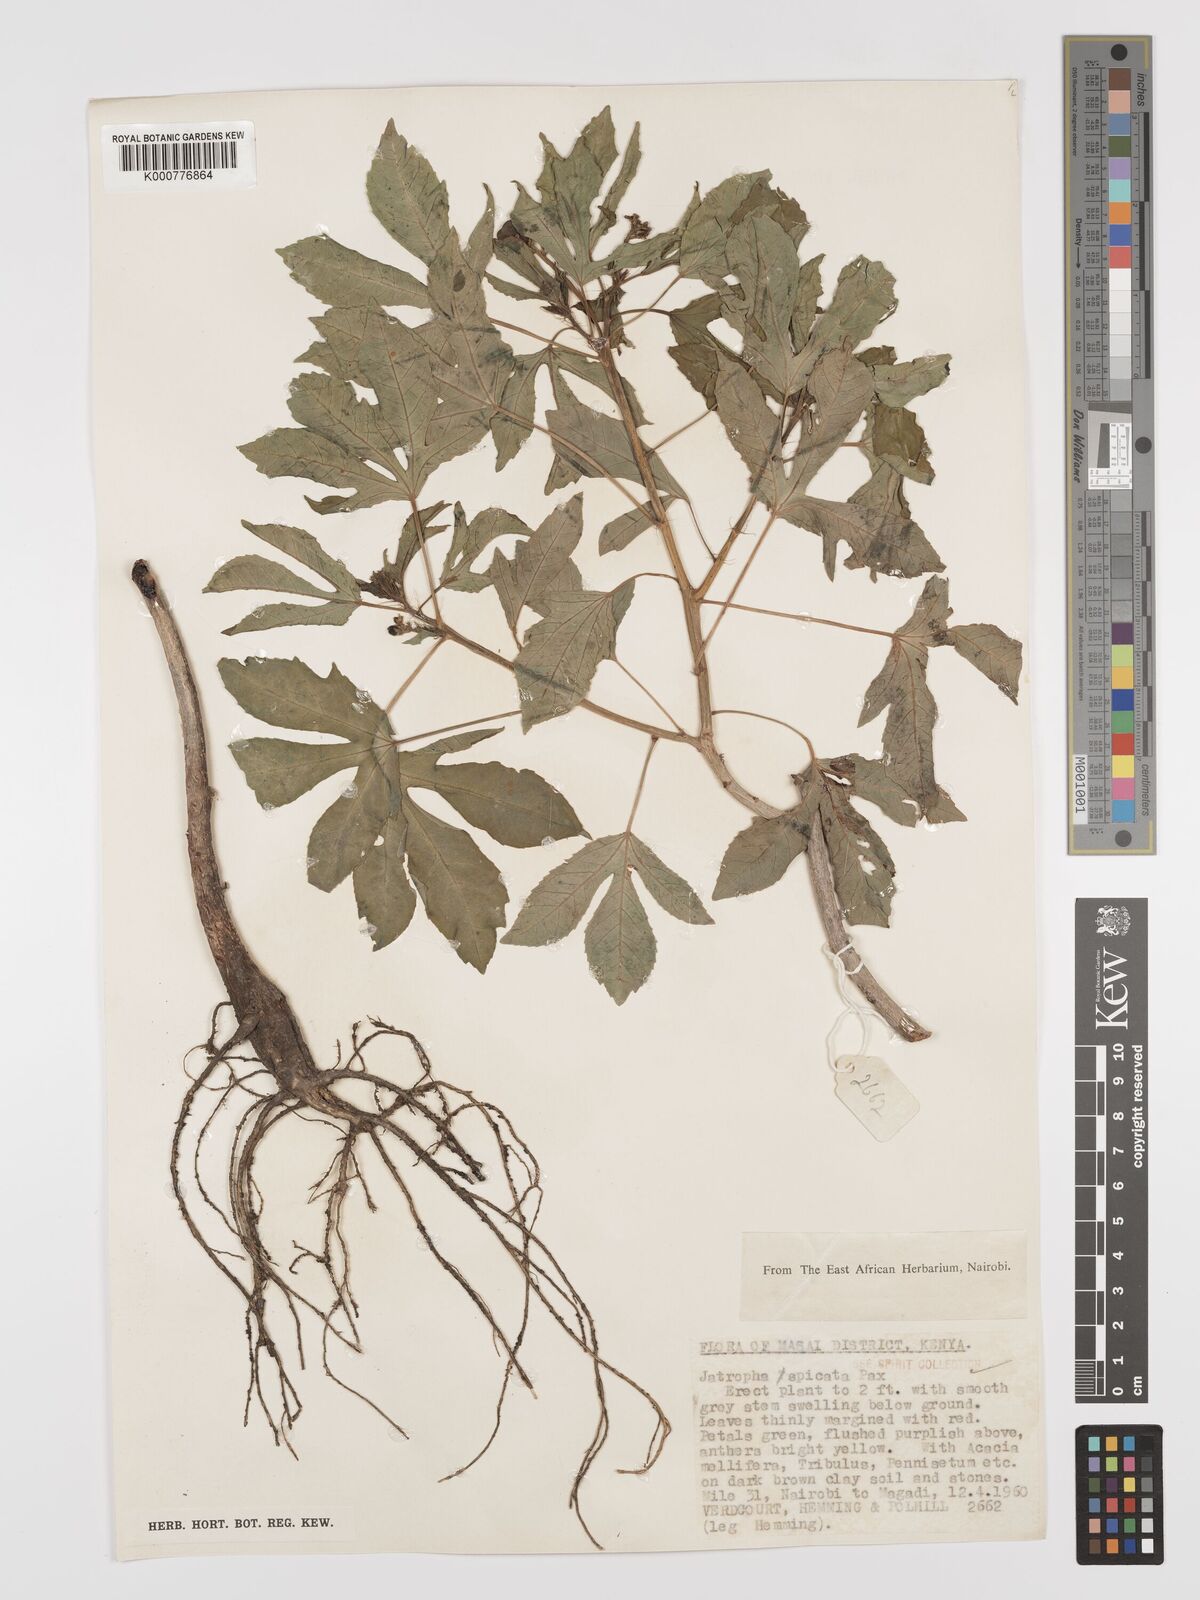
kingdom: Plantae
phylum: Tracheophyta
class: Magnoliopsida
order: Malpighiales
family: Euphorbiaceae
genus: Jatropha
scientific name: Jatropha spicata
